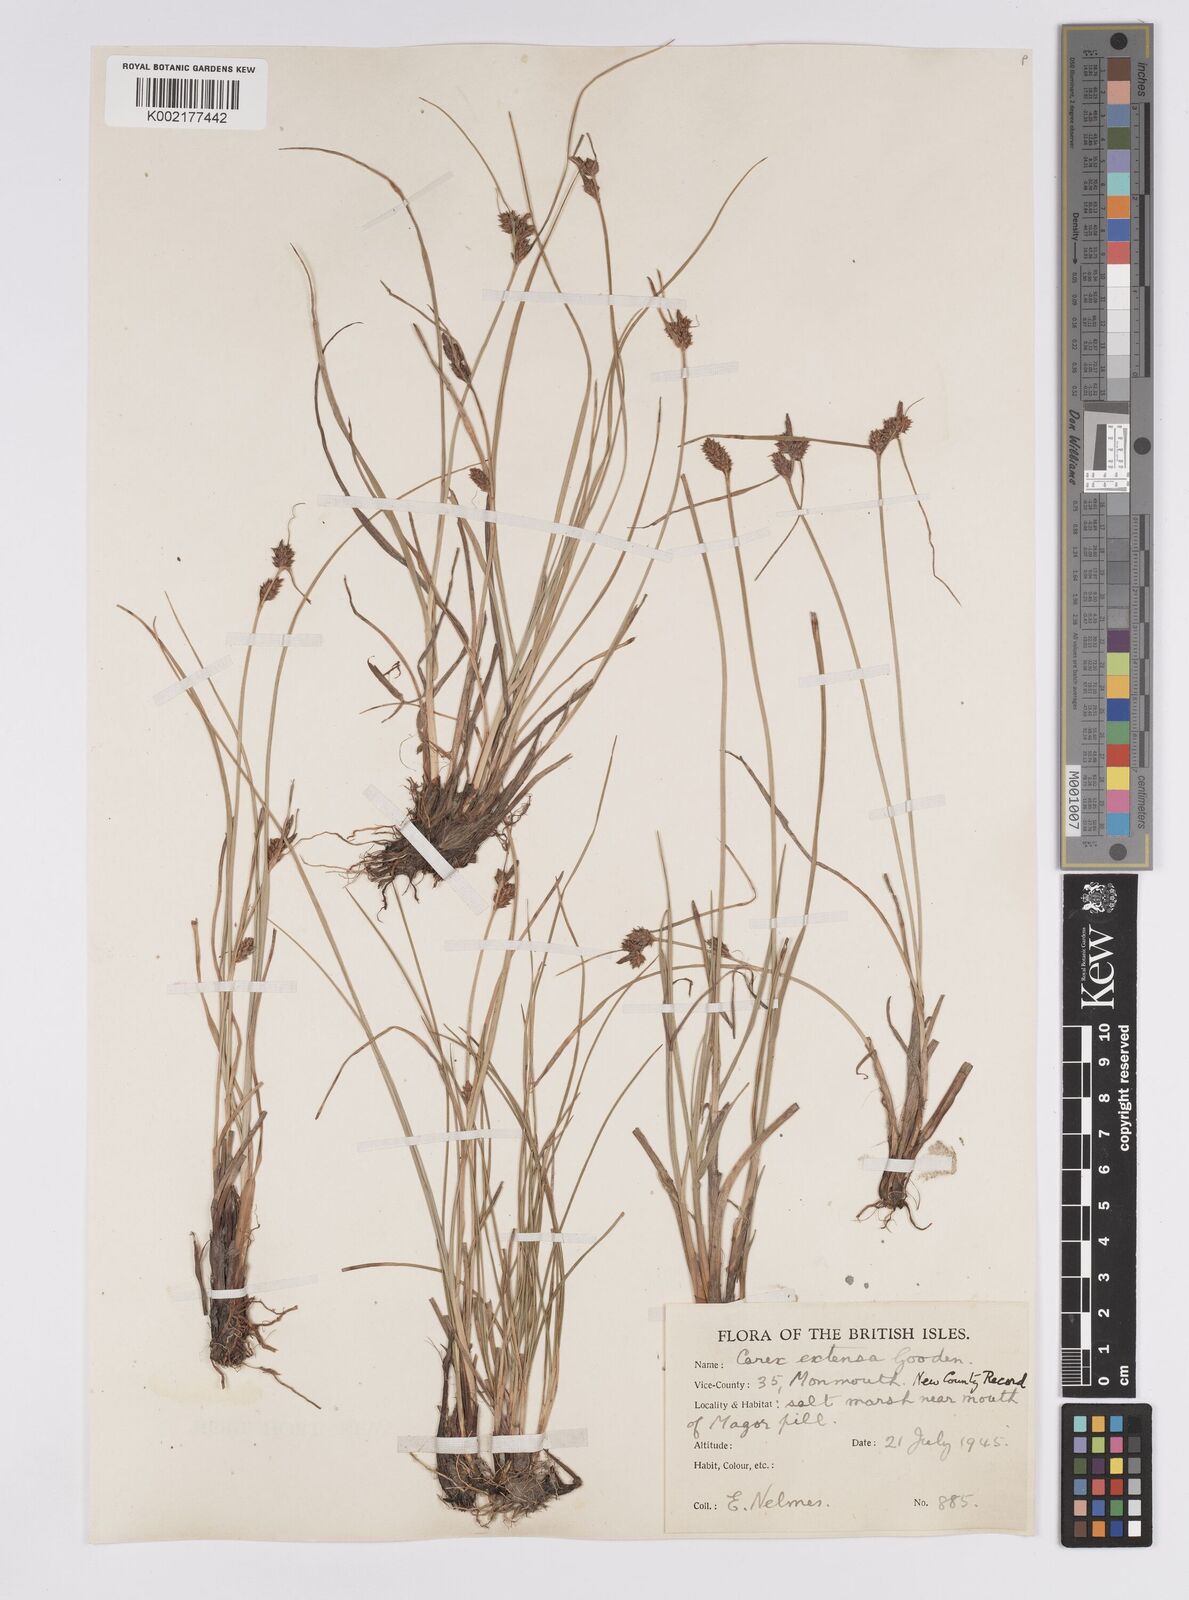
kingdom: Plantae
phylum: Tracheophyta
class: Liliopsida
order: Poales
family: Cyperaceae
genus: Carex
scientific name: Carex extensa
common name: Long-bracted sedge
